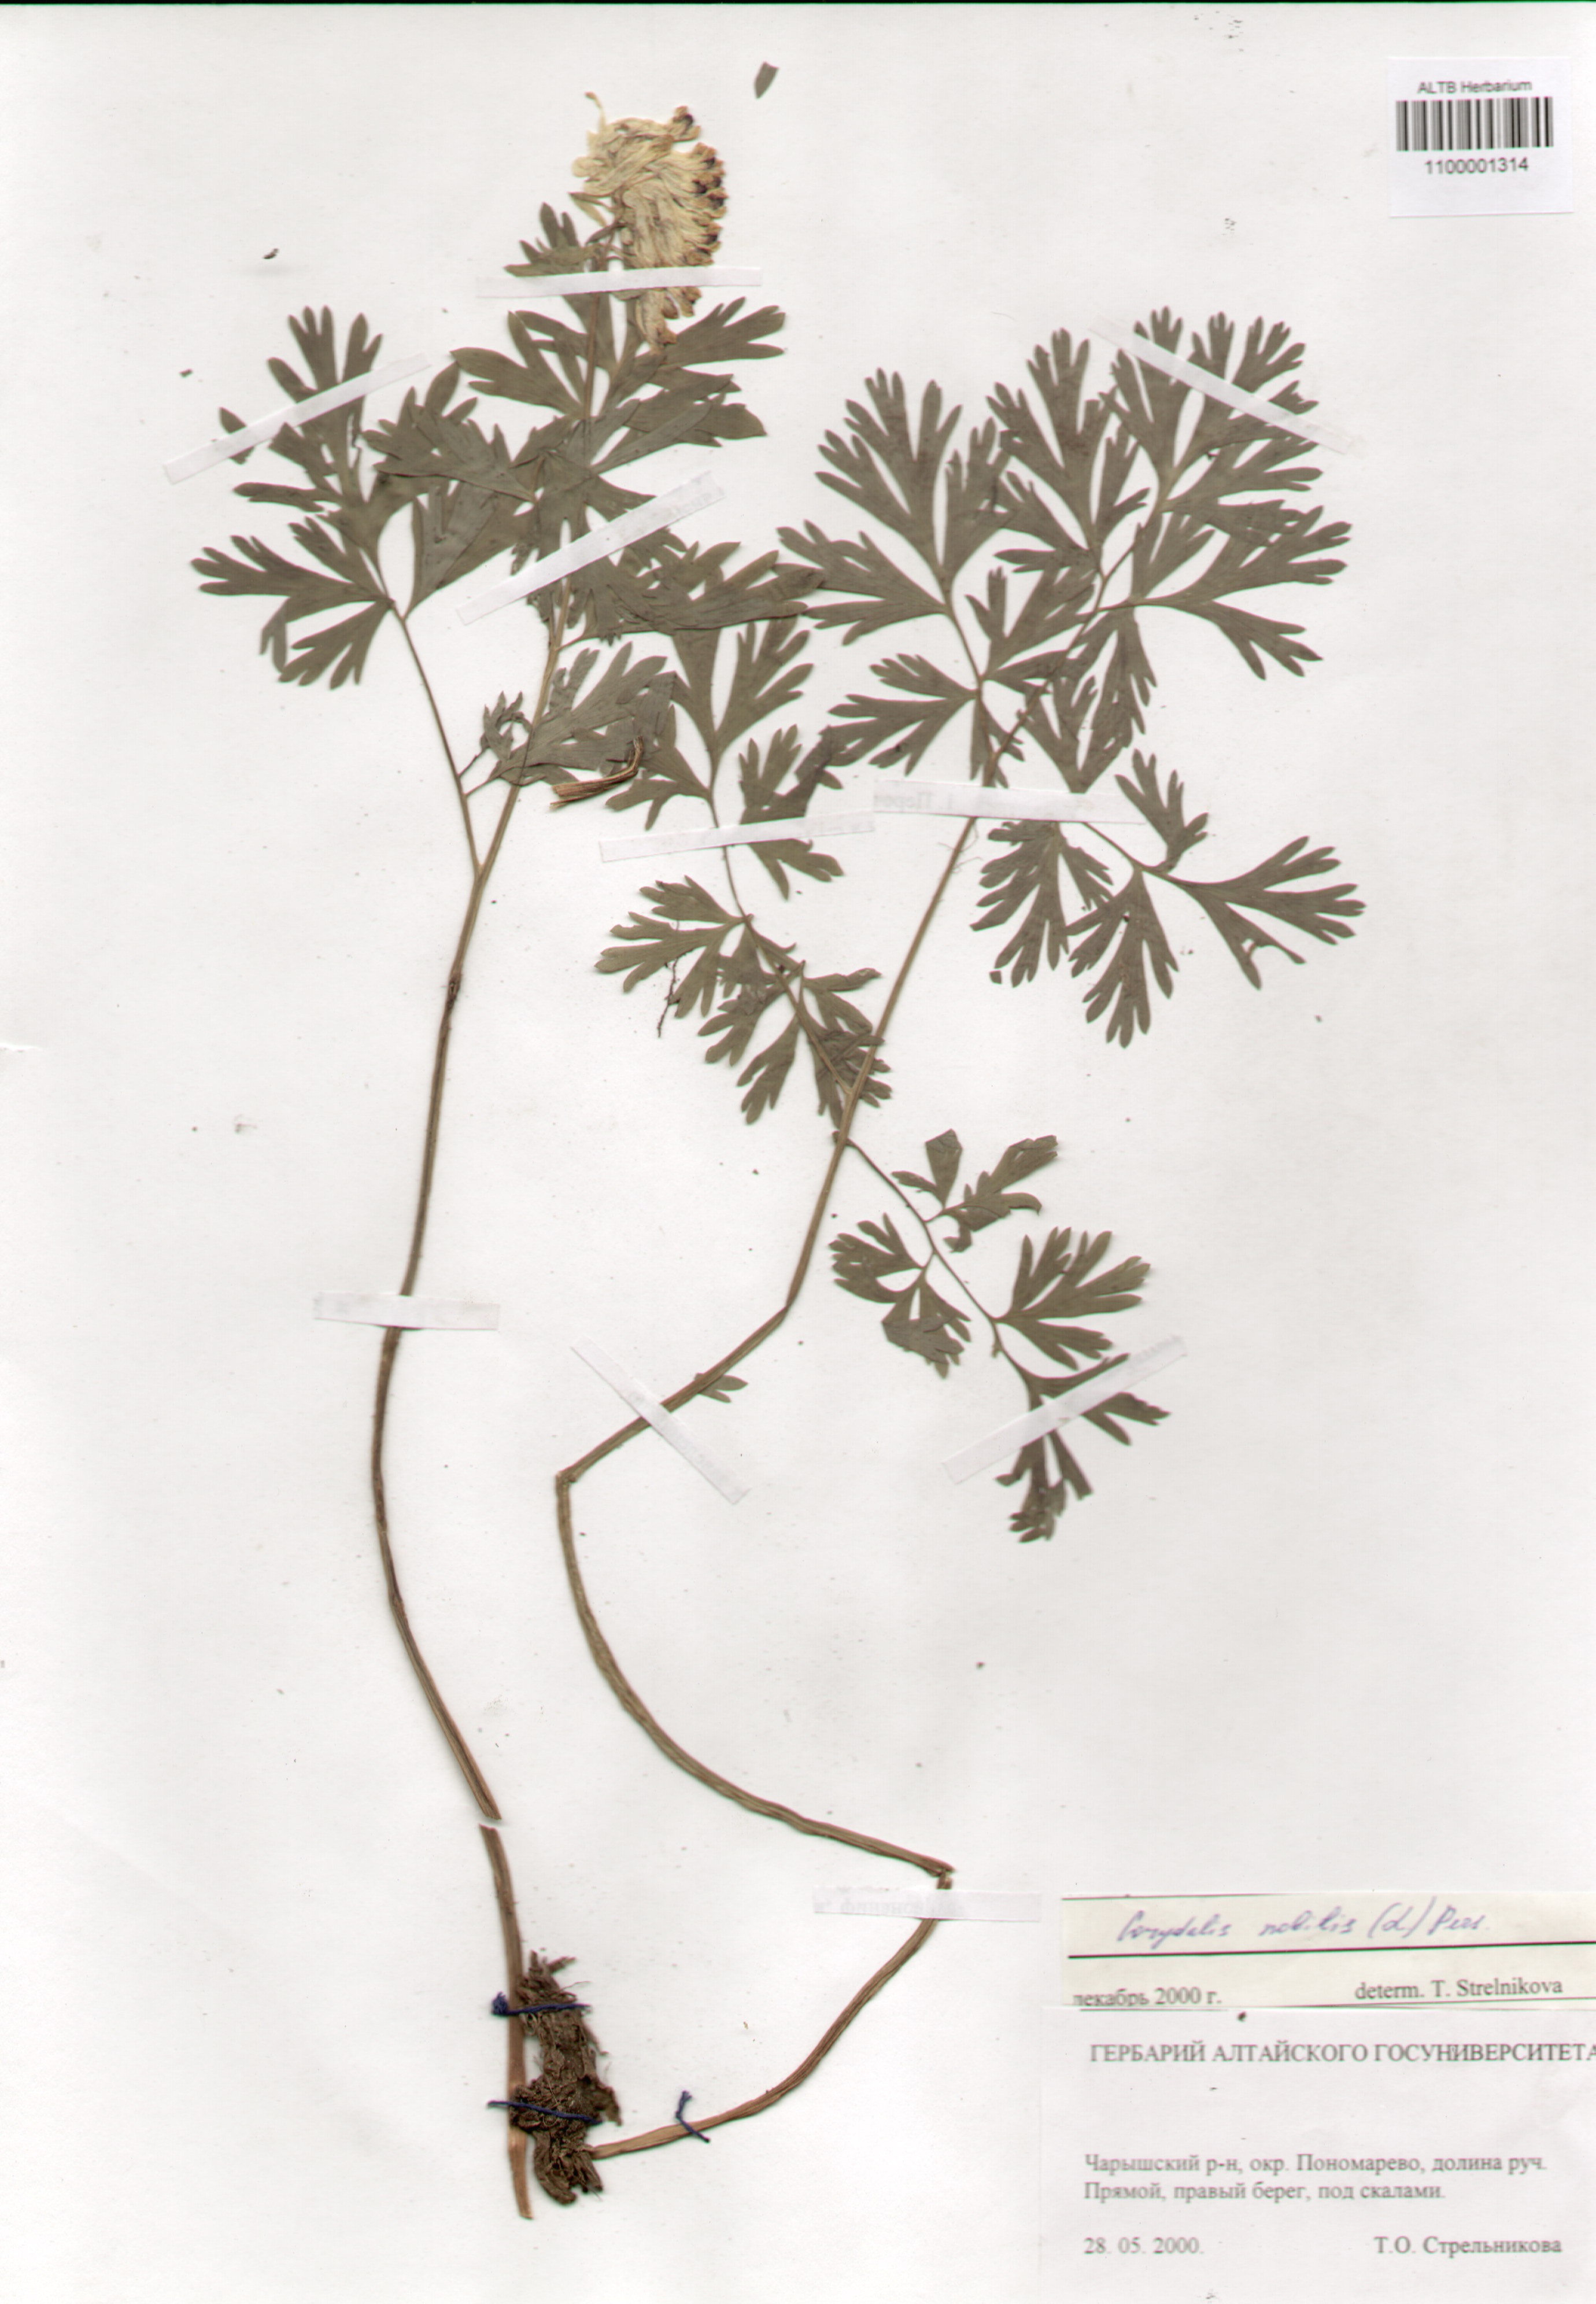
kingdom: Plantae
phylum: Tracheophyta
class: Magnoliopsida
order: Ranunculales
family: Papaveraceae
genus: Corydalis
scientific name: Corydalis nobilis
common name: Siberian corydalis
